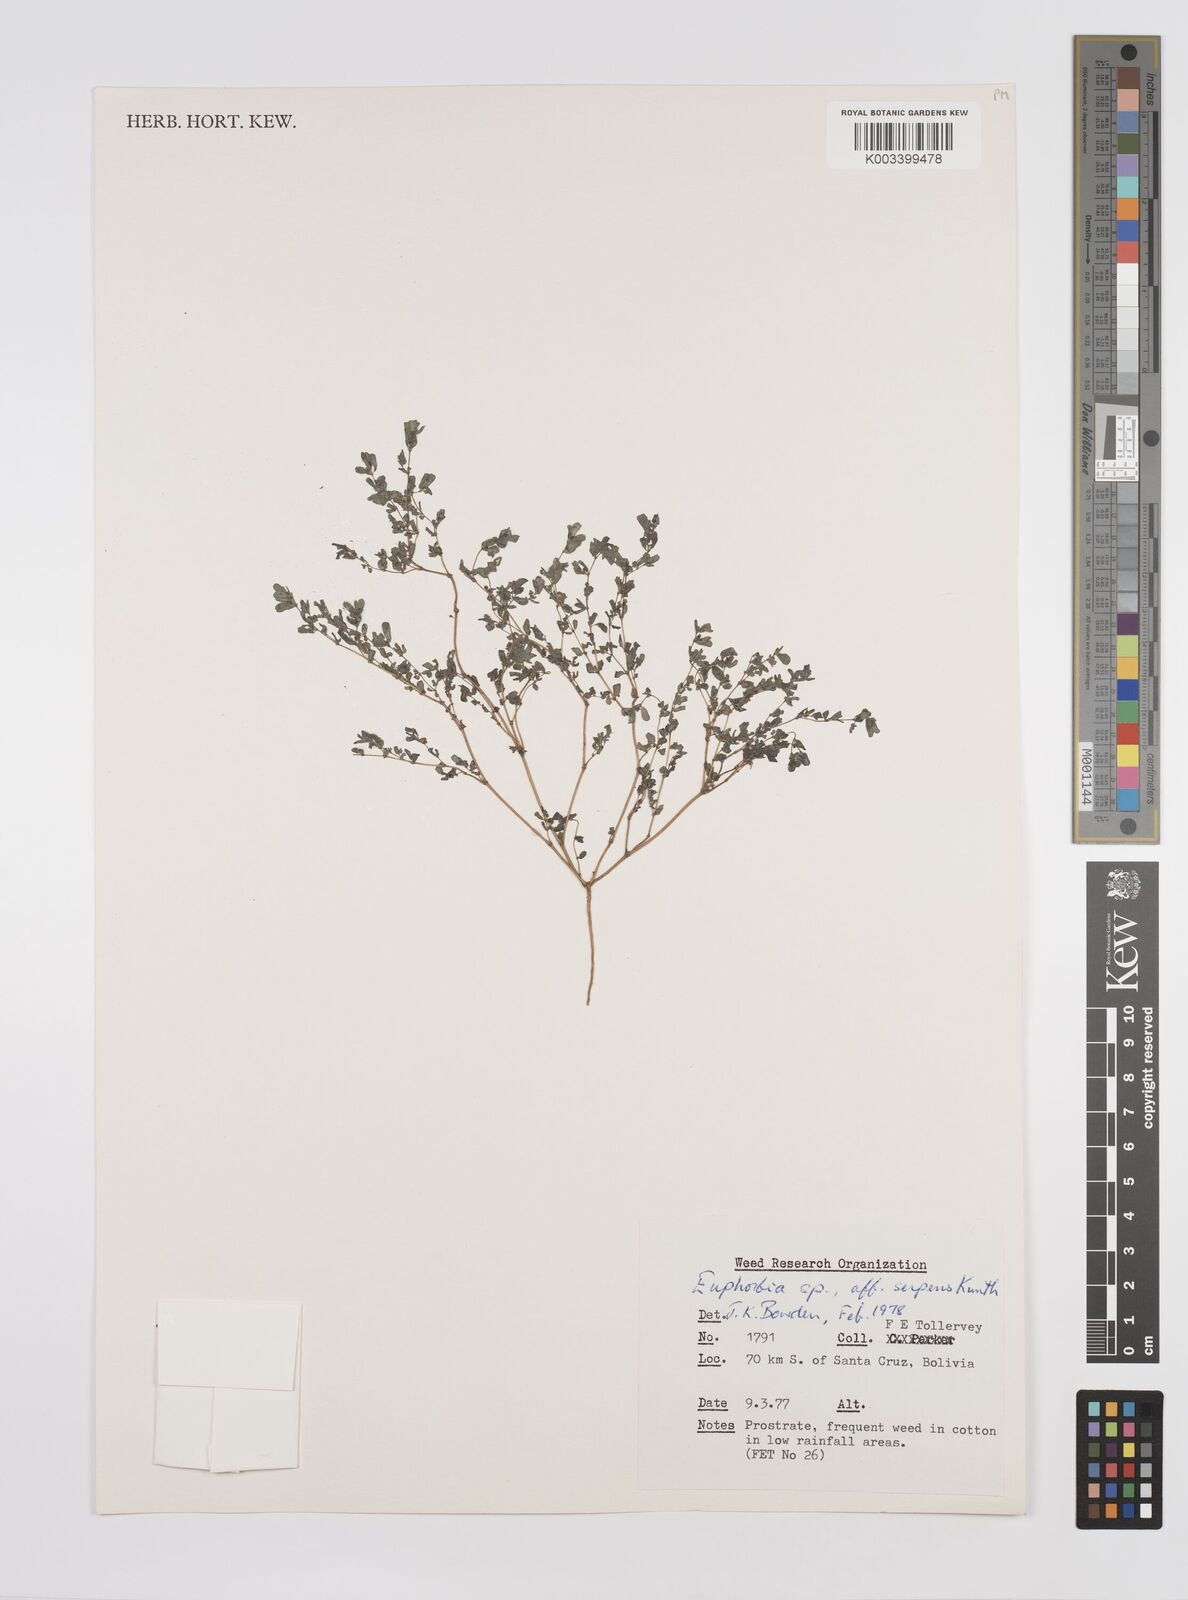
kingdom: Plantae
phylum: Tracheophyta
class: Magnoliopsida
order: Malpighiales
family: Euphorbiaceae
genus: Euphorbia
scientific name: Euphorbia
